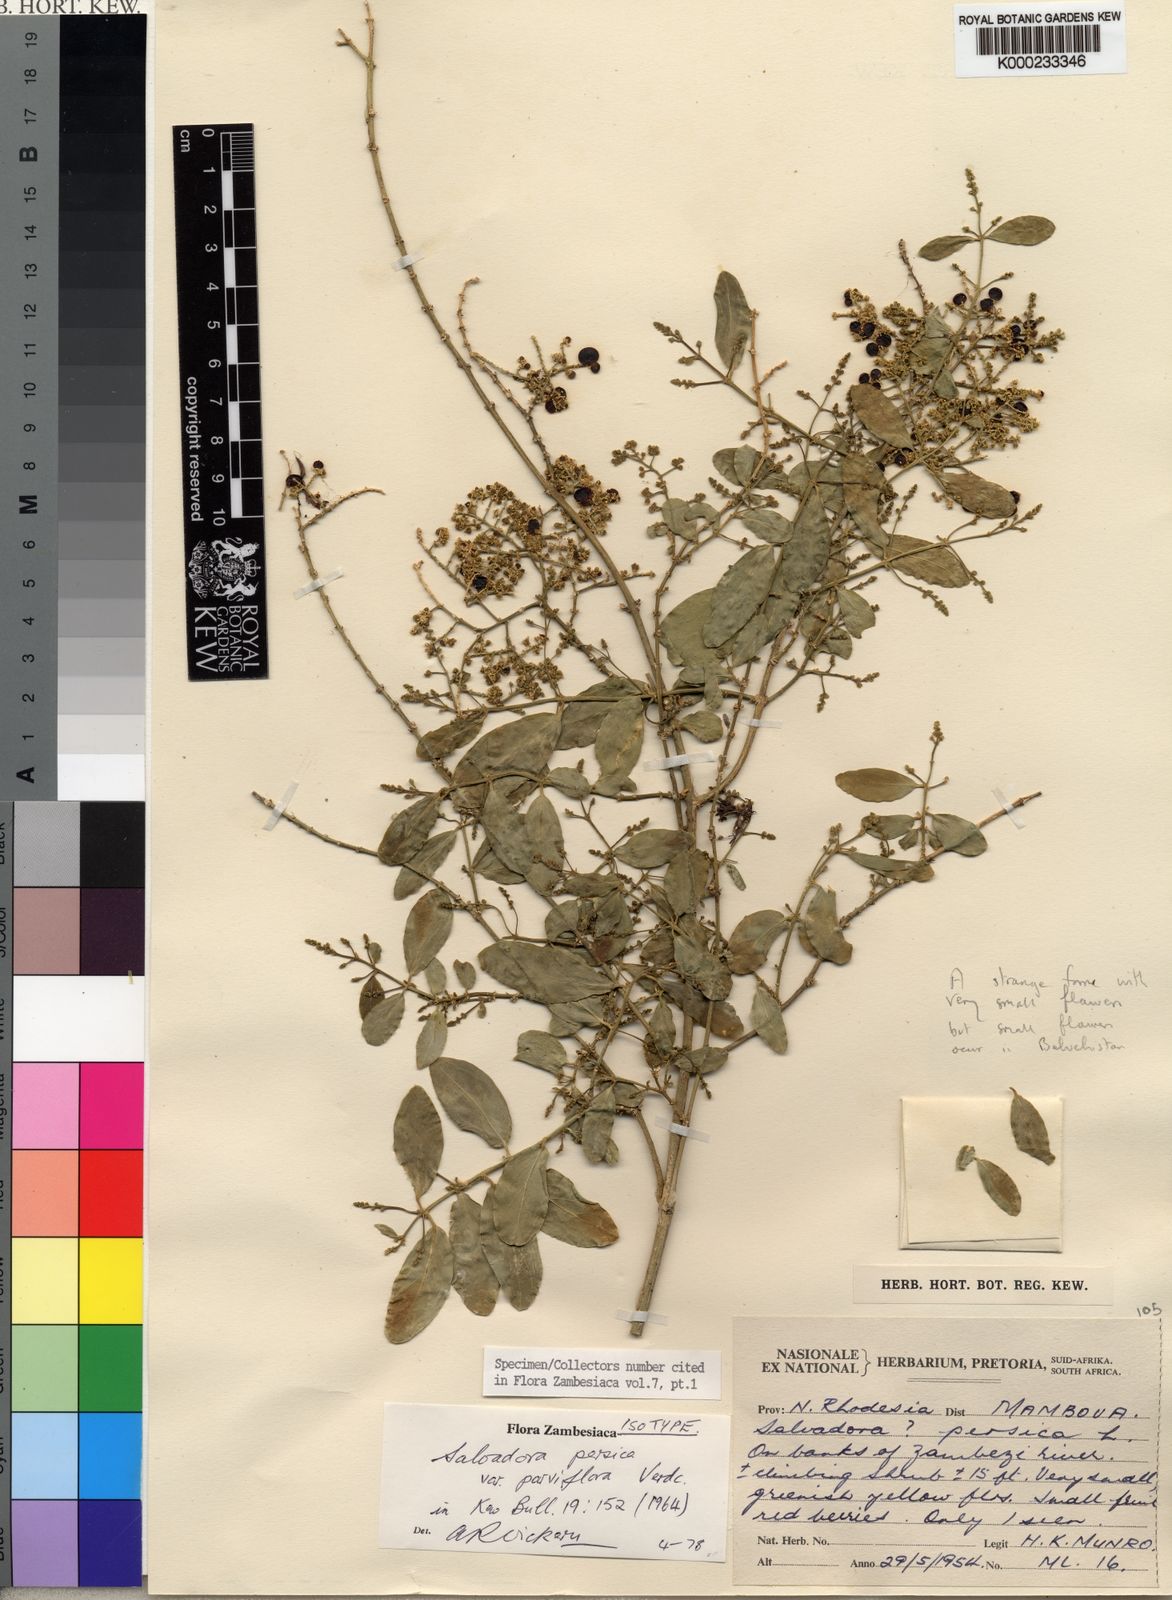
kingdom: Plantae
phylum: Tracheophyta
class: Magnoliopsida
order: Brassicales
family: Salvadoraceae
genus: Salvadora
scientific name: Salvadora persica
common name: Toothbrushtree
